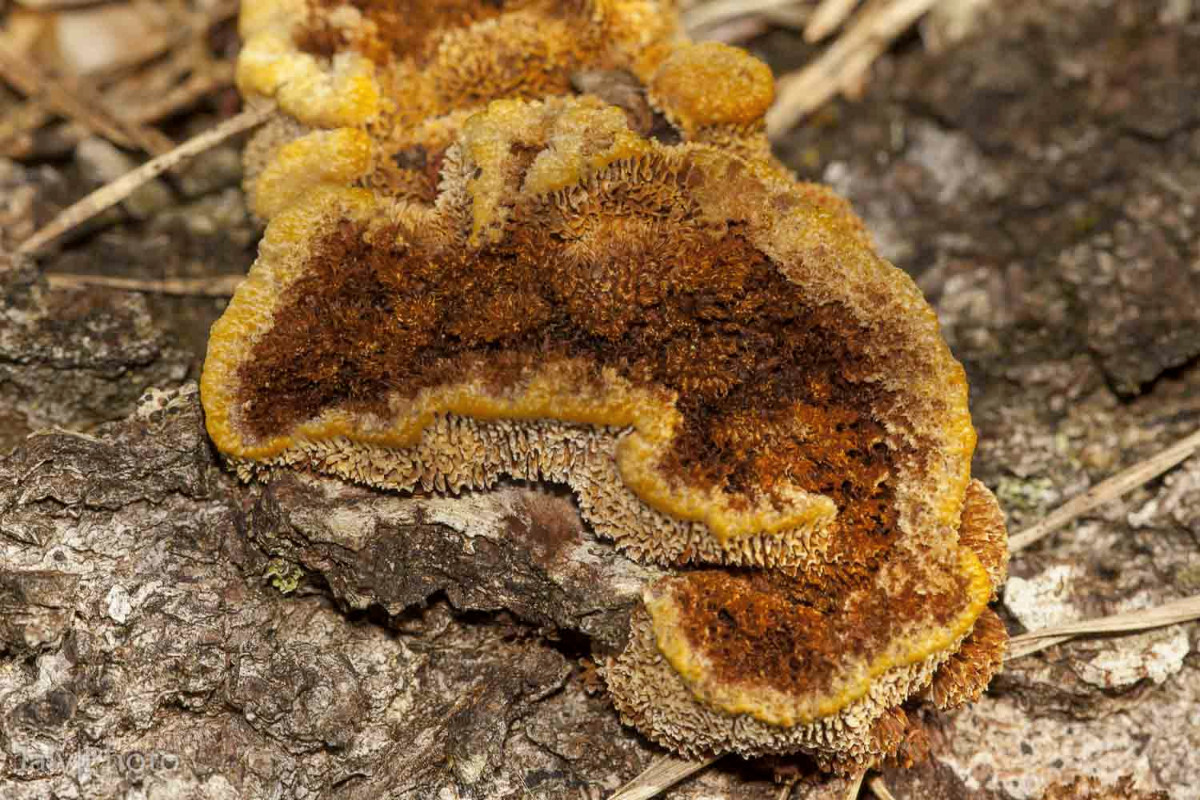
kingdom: Fungi
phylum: Basidiomycota
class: Agaricomycetes
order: Gloeophyllales
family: Gloeophyllaceae
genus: Gloeophyllum
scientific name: Gloeophyllum sepiarium
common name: fyrre-korkhat
